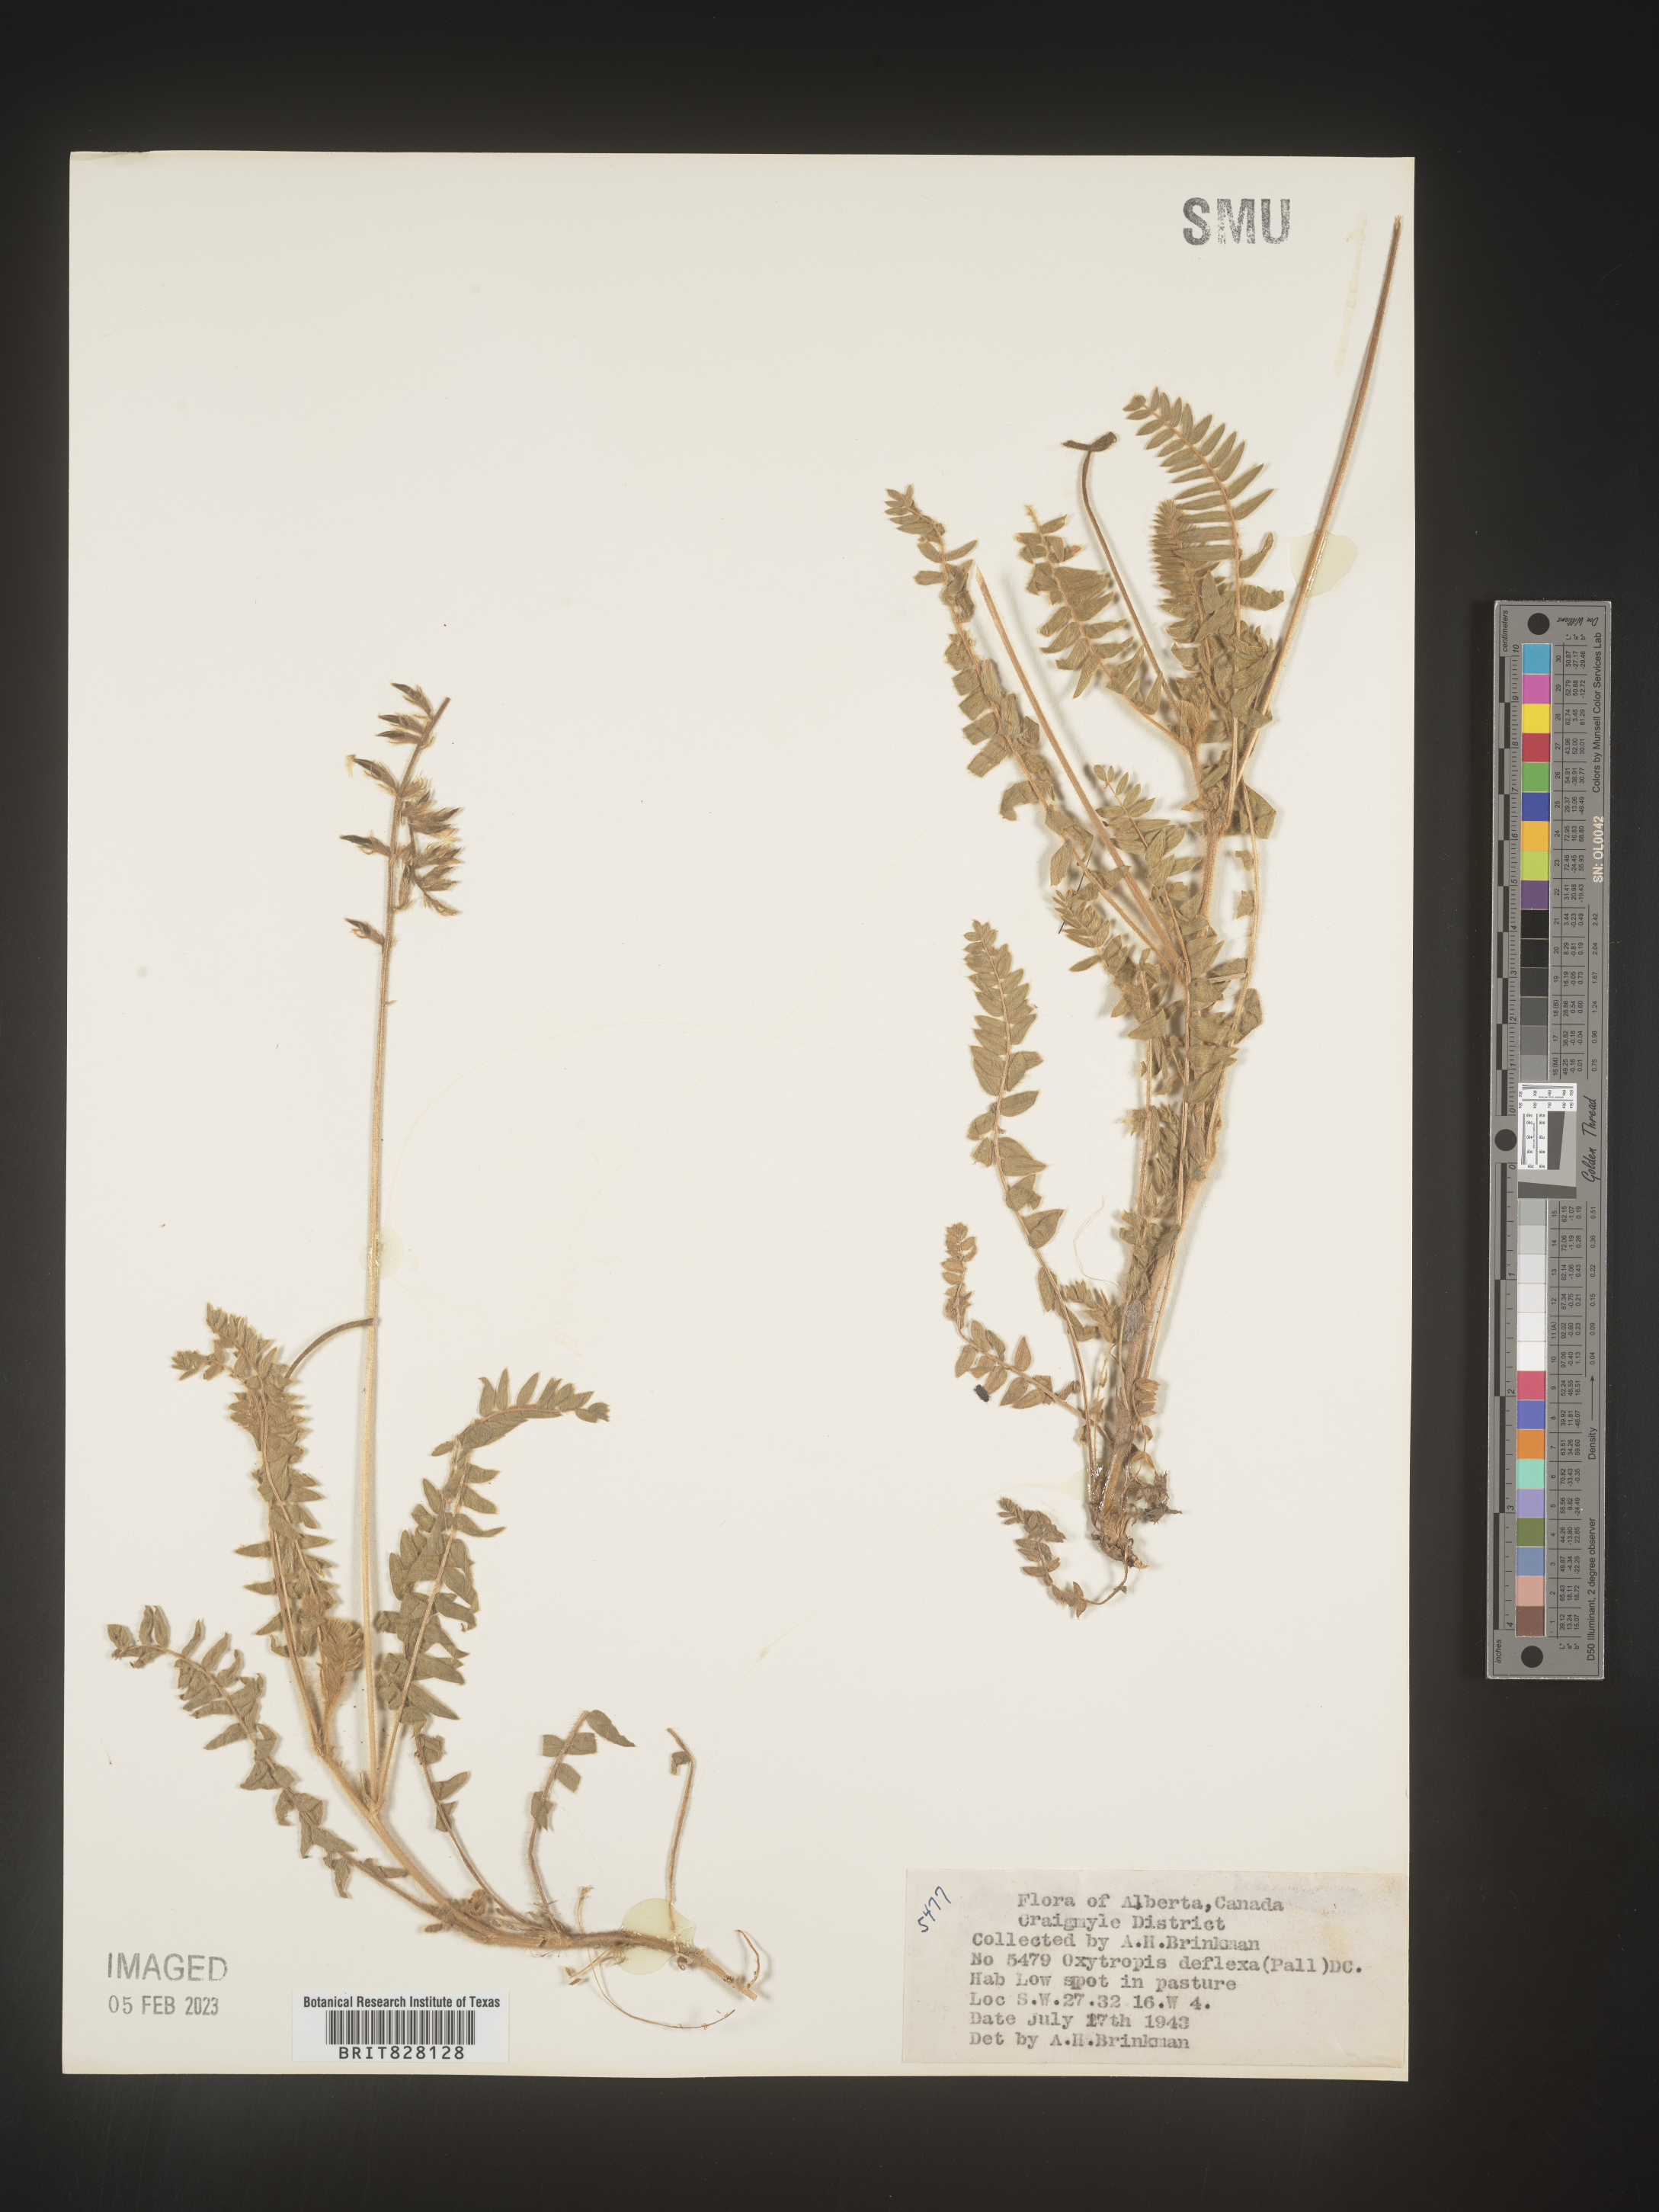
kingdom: Plantae
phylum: Tracheophyta
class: Magnoliopsida
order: Fabales
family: Fabaceae
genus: Oxytropis
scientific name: Oxytropis
